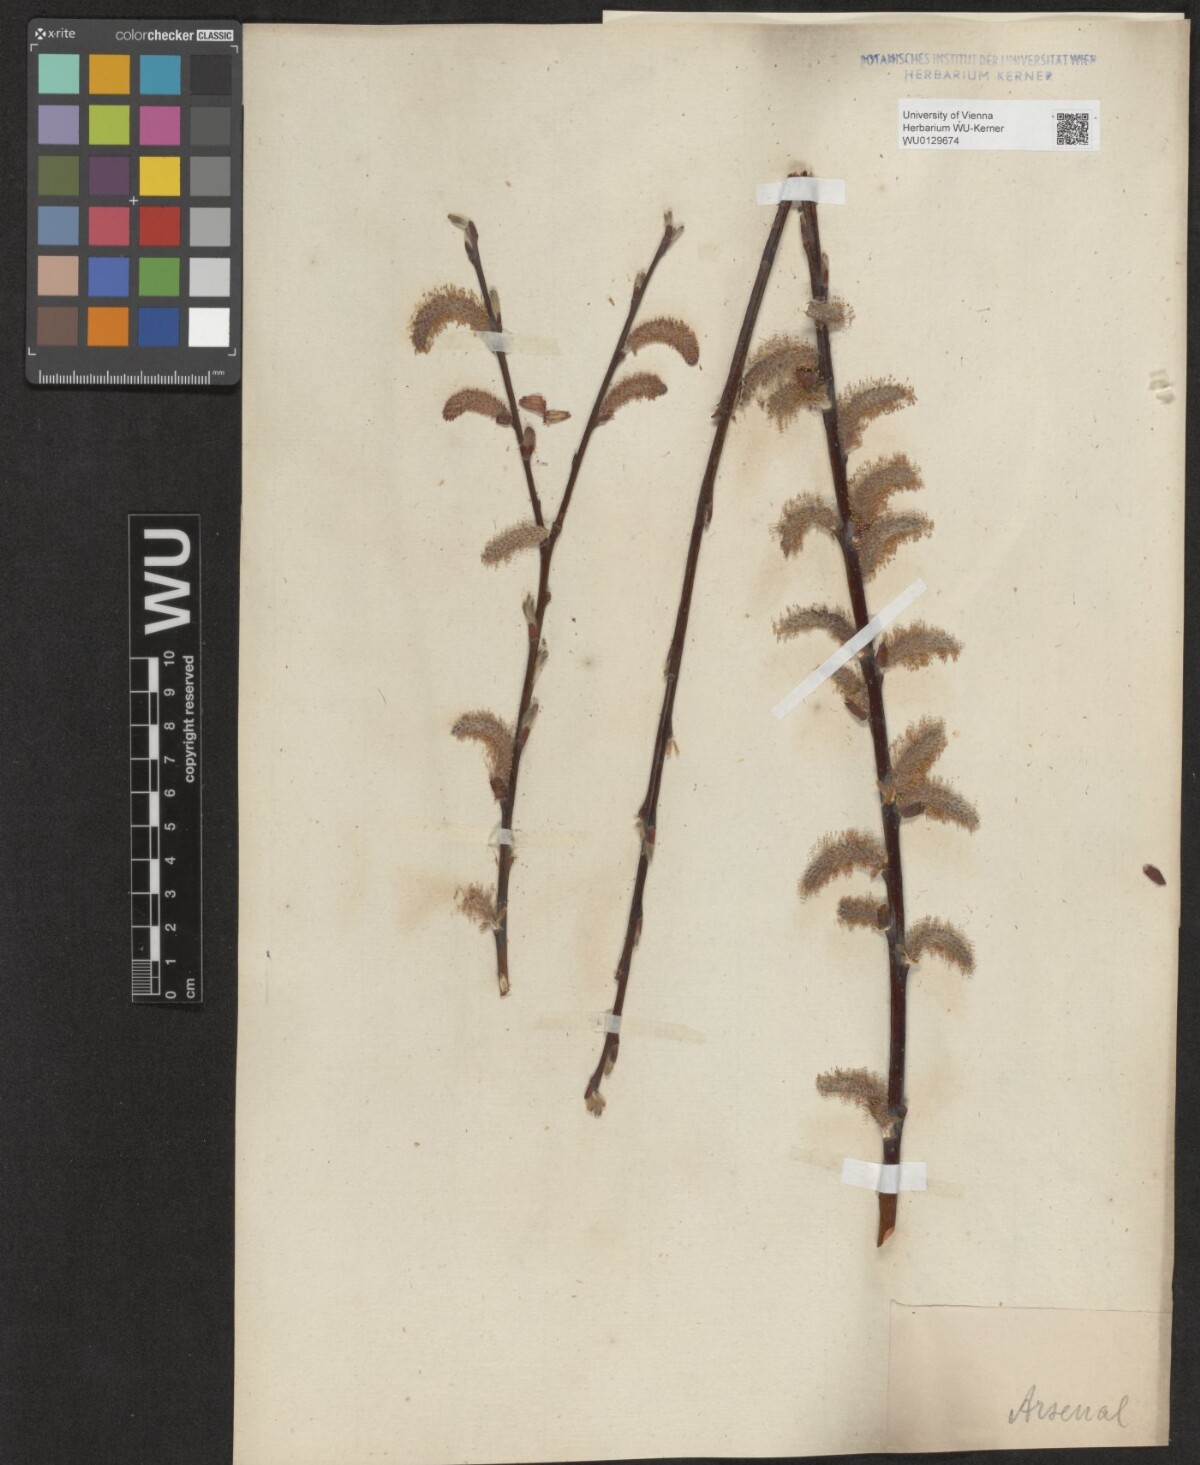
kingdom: Plantae
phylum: Tracheophyta
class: Magnoliopsida
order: Malpighiales
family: Salicaceae
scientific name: Salicaceae
